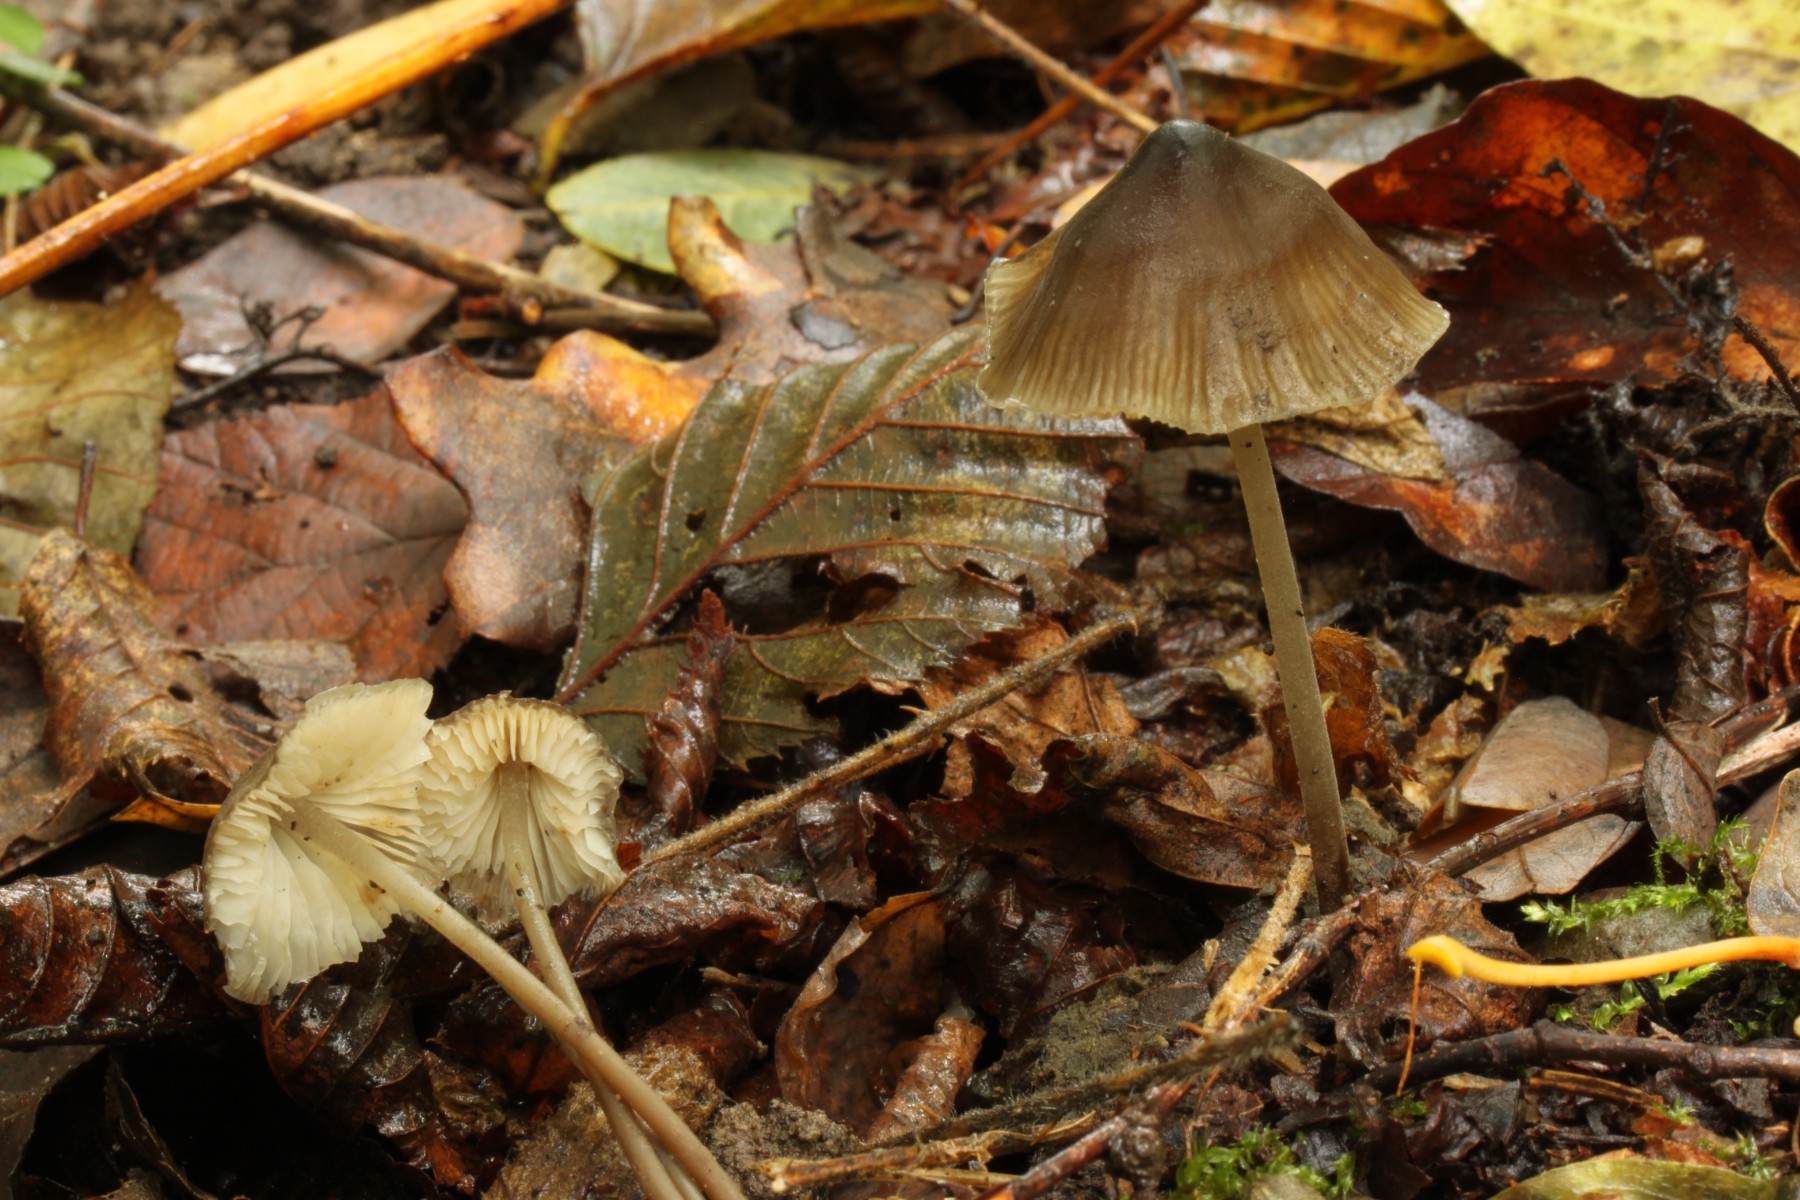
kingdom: Fungi
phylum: Basidiomycota
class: Agaricomycetes
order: Agaricales
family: Porotheleaceae
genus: Phloeomana
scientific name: Phloeomana atropapillata
